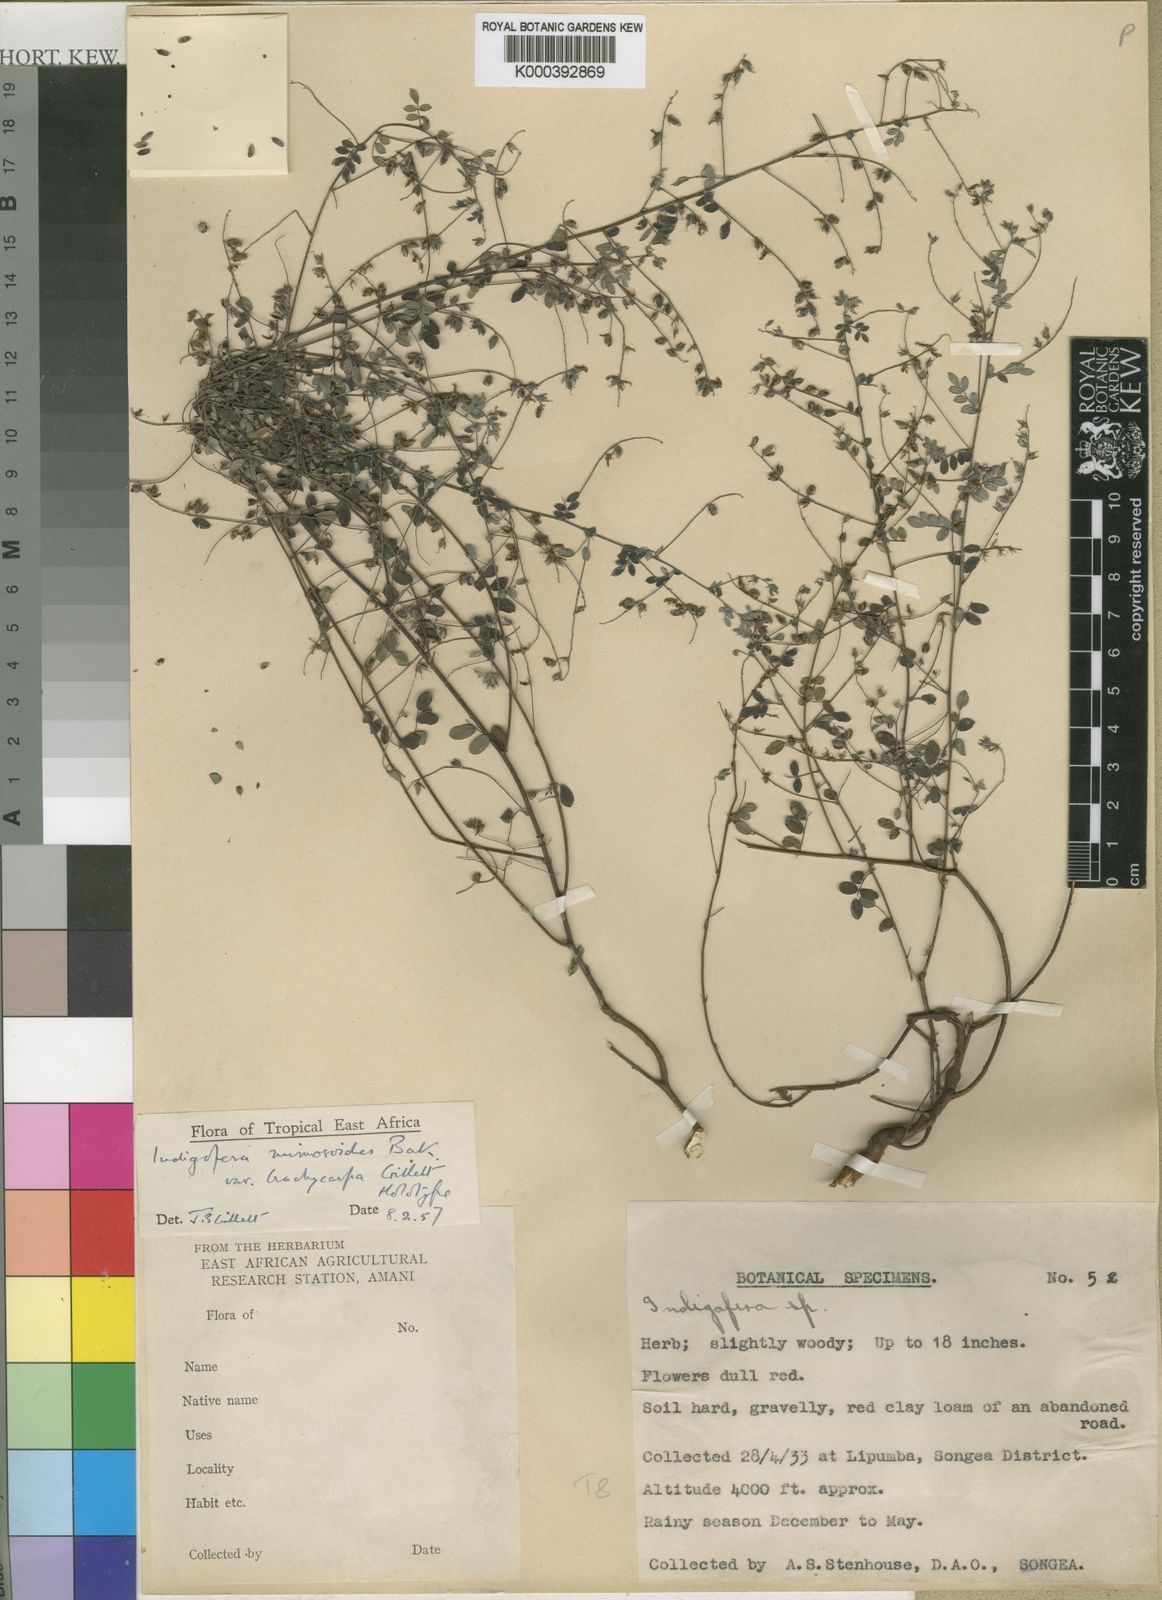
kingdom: Plantae
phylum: Tracheophyta
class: Magnoliopsida
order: Fabales
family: Fabaceae
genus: Indigofera
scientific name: Indigofera mimosoides
